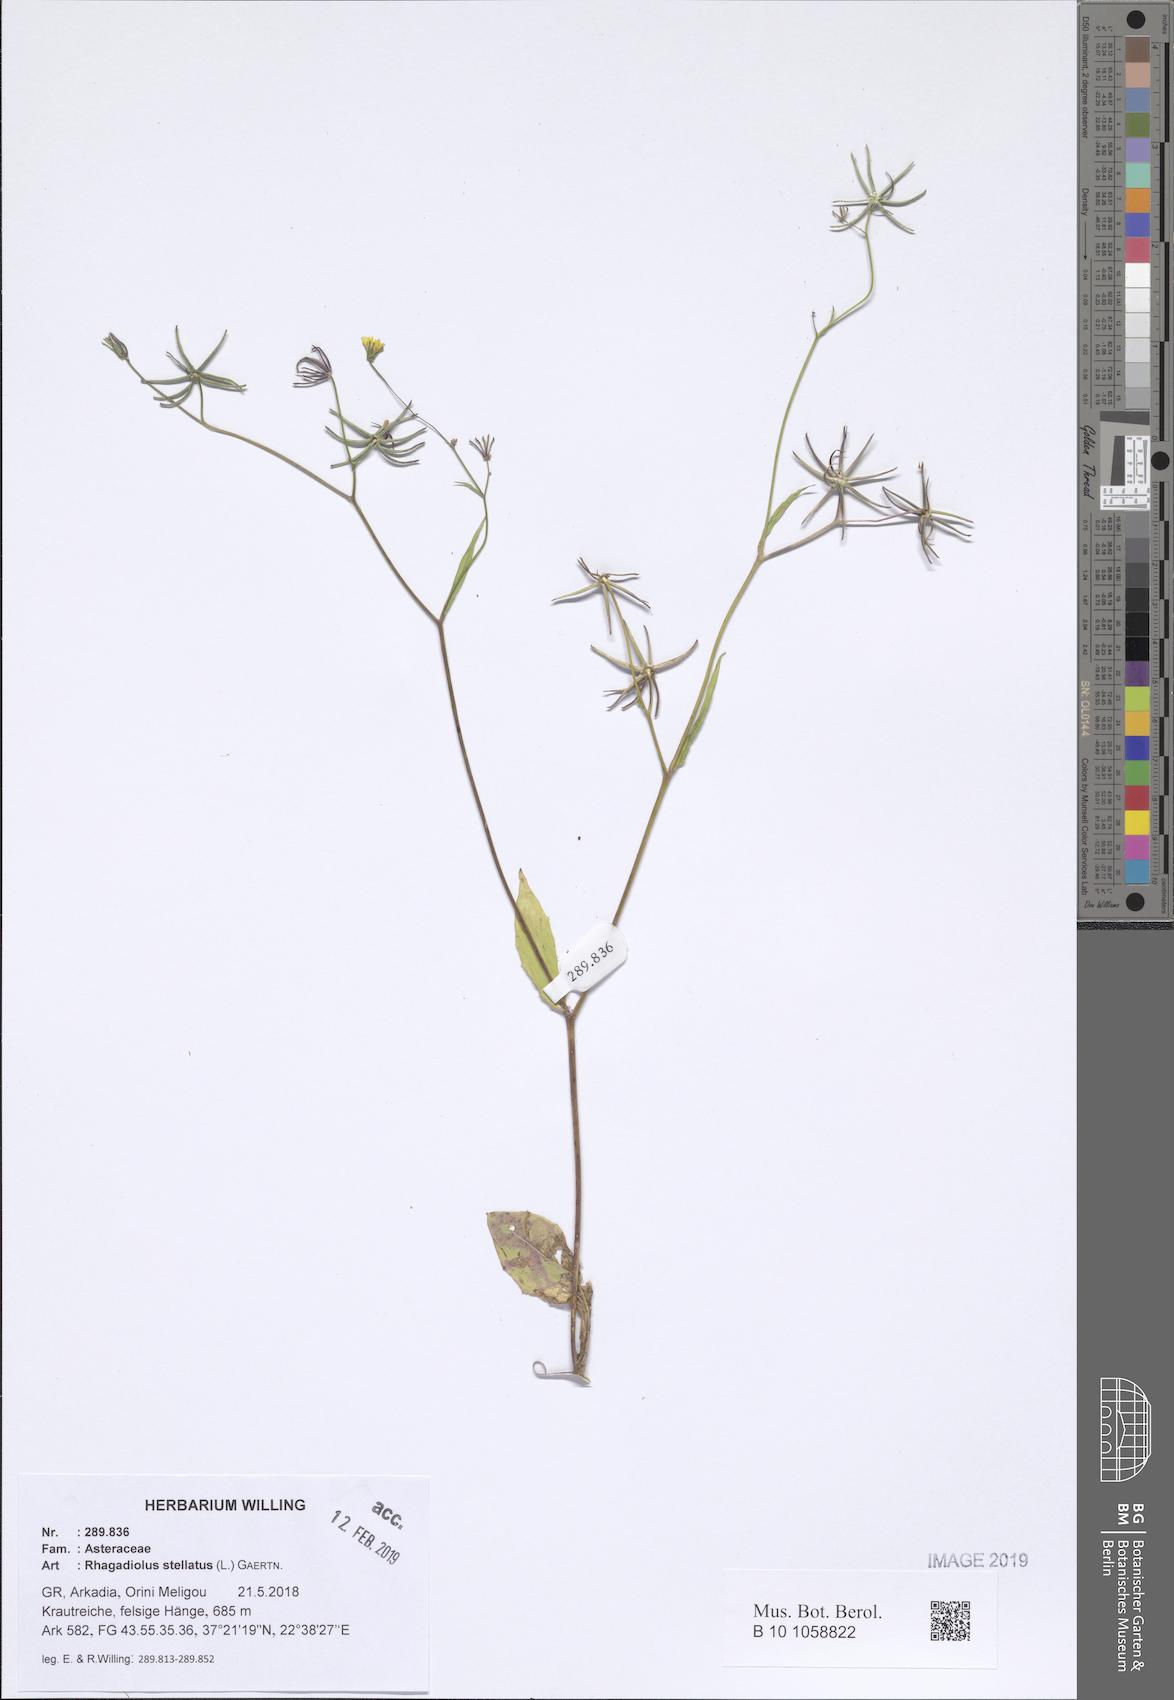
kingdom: Plantae
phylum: Tracheophyta
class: Magnoliopsida
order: Asterales
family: Asteraceae
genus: Rhagadiolus
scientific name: Rhagadiolus stellatus
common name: Star hawkbit
